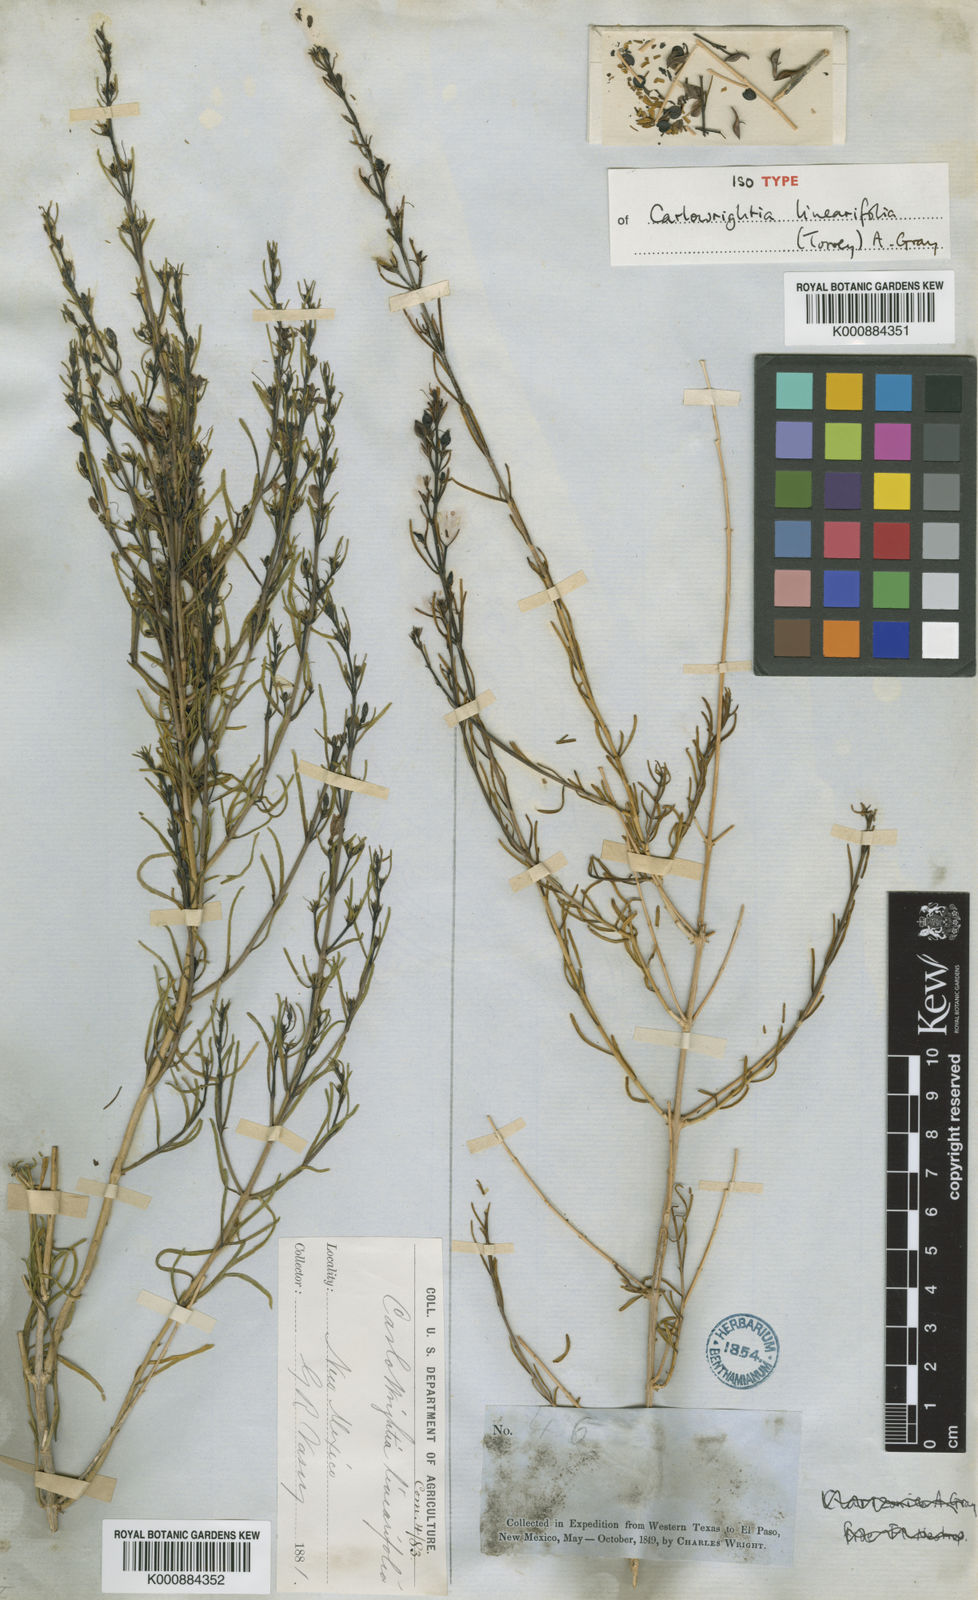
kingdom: Plantae
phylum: Tracheophyta
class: Magnoliopsida
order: Lamiales
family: Acanthaceae
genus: Carlowrightia
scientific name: Carlowrightia linearifolia
